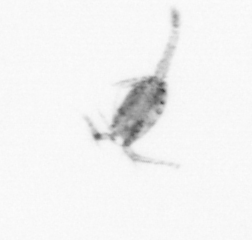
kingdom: Animalia
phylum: Arthropoda
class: Copepoda
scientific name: Copepoda
